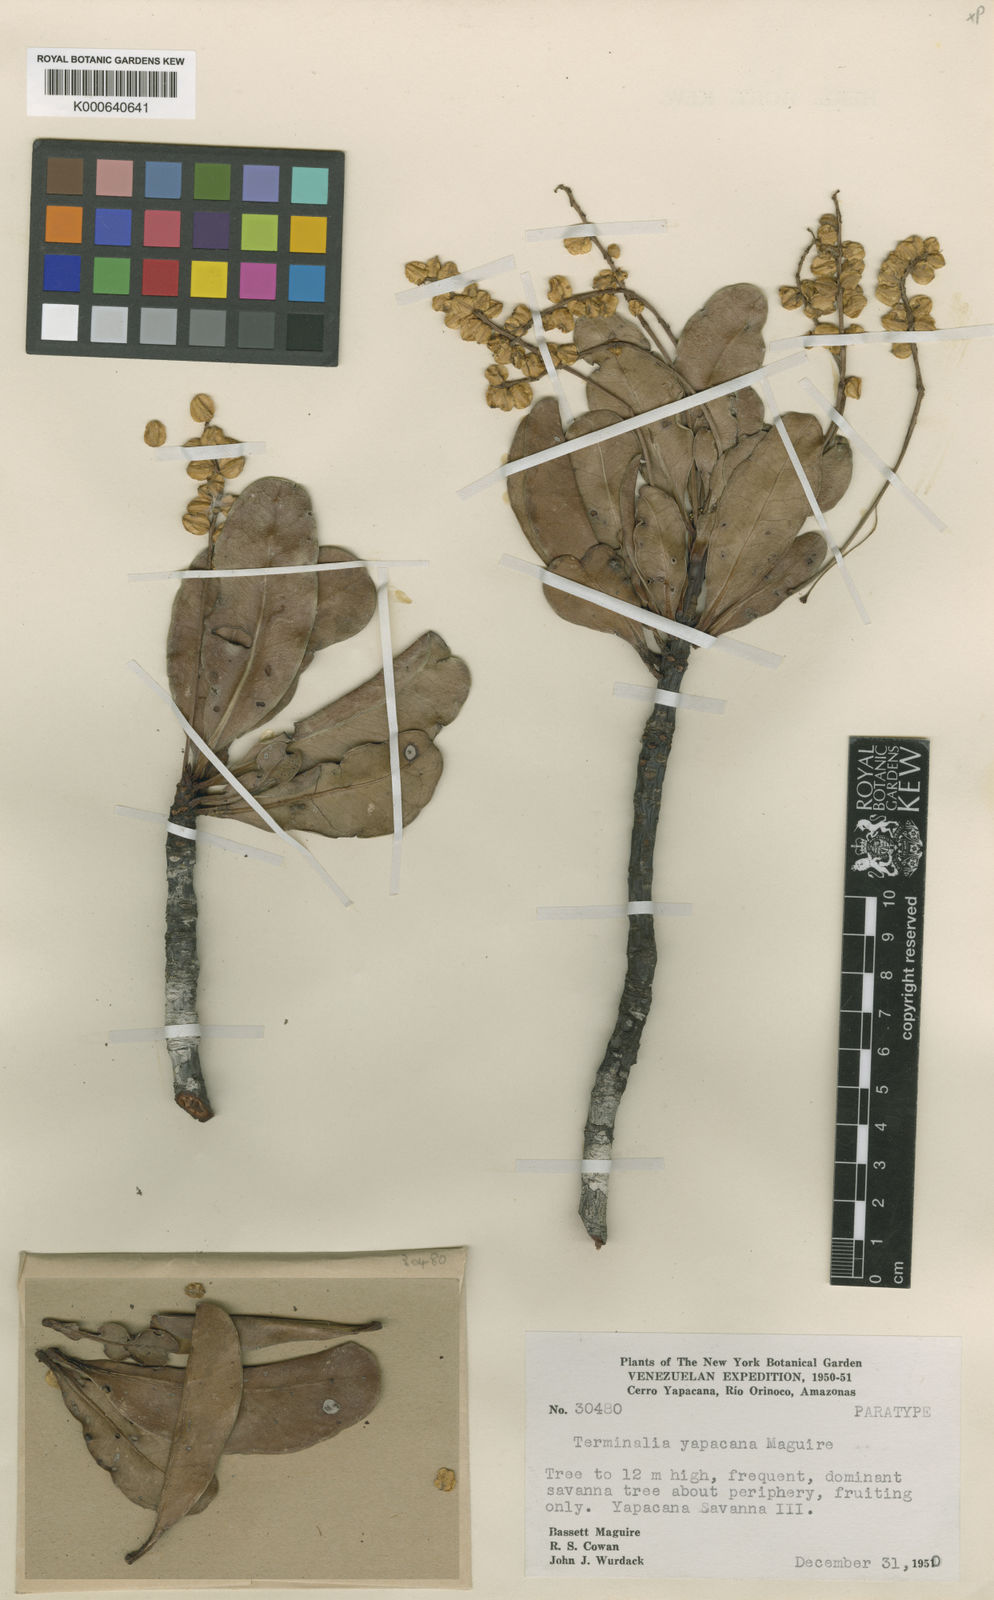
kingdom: Plantae
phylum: Tracheophyta
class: Magnoliopsida
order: Myrtales
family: Combretaceae
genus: Terminalia
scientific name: Terminalia yapacana
